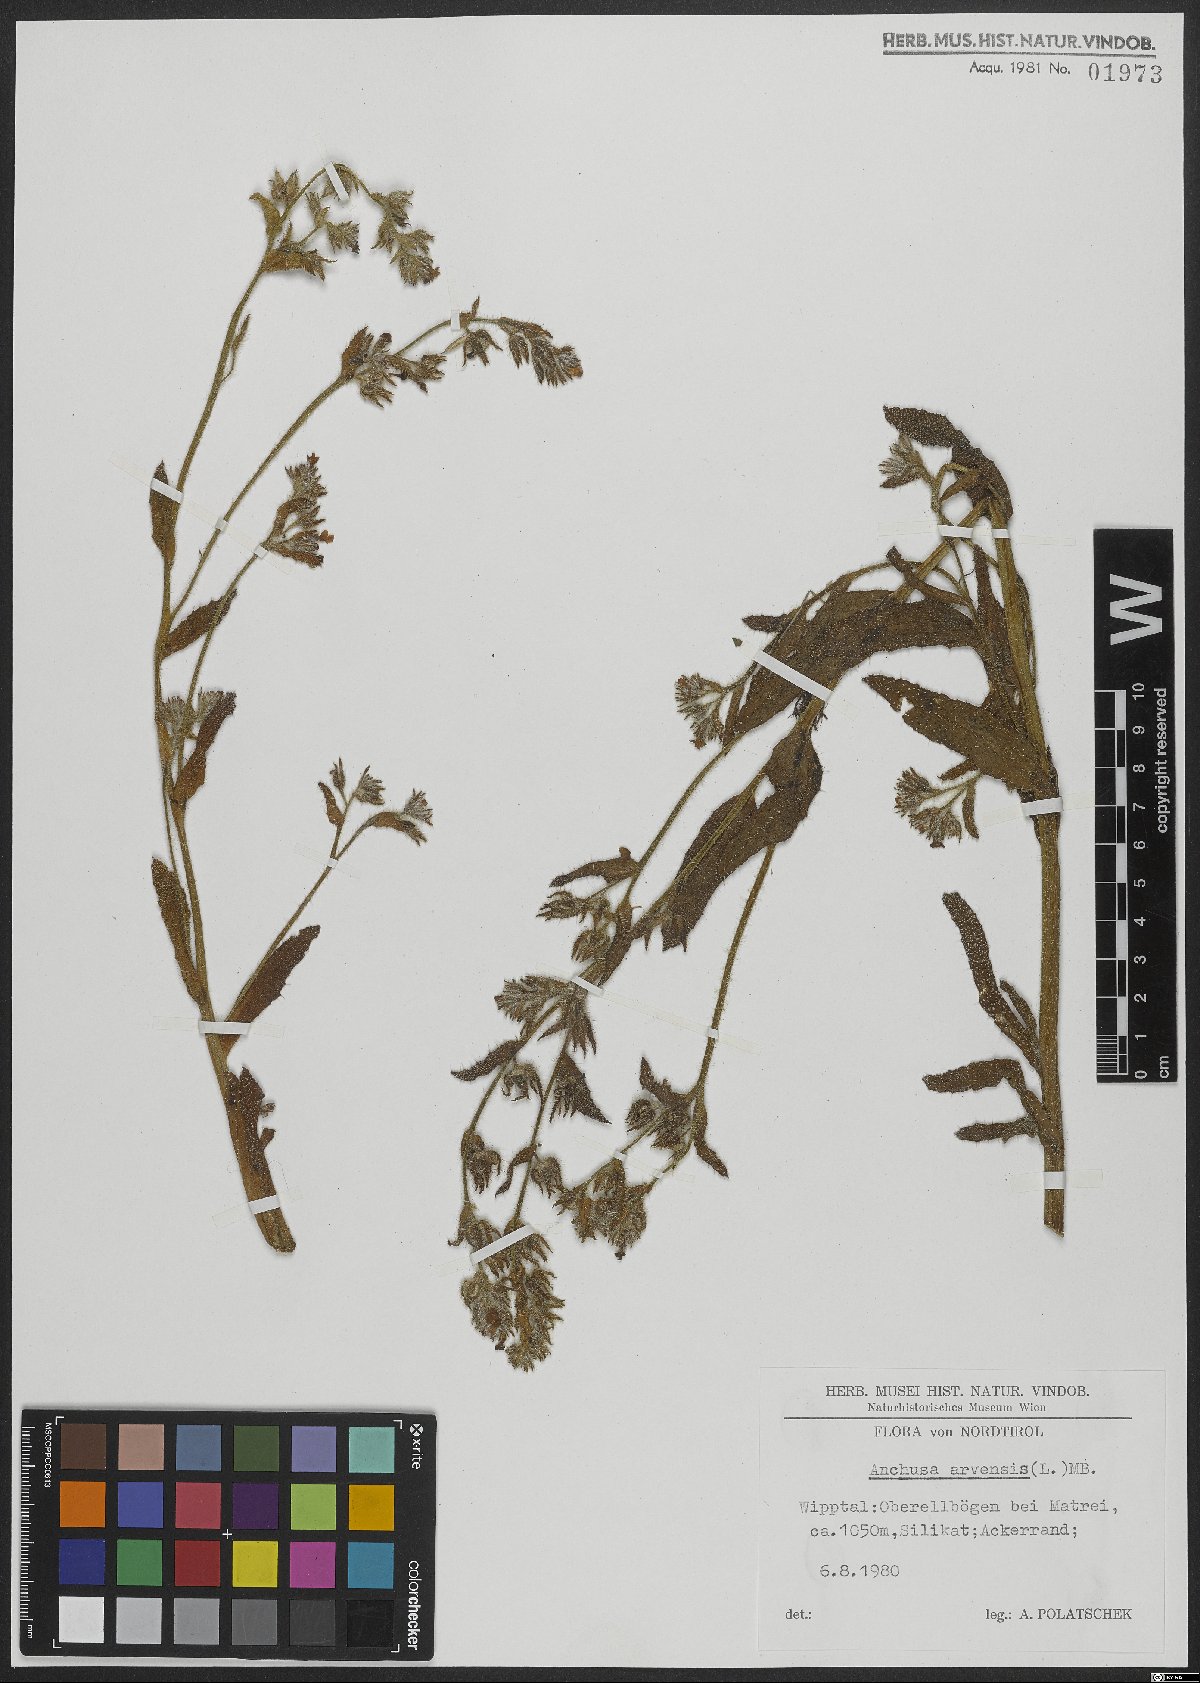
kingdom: Plantae
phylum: Tracheophyta
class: Magnoliopsida
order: Boraginales
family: Boraginaceae
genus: Lycopsis
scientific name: Lycopsis arvensis
